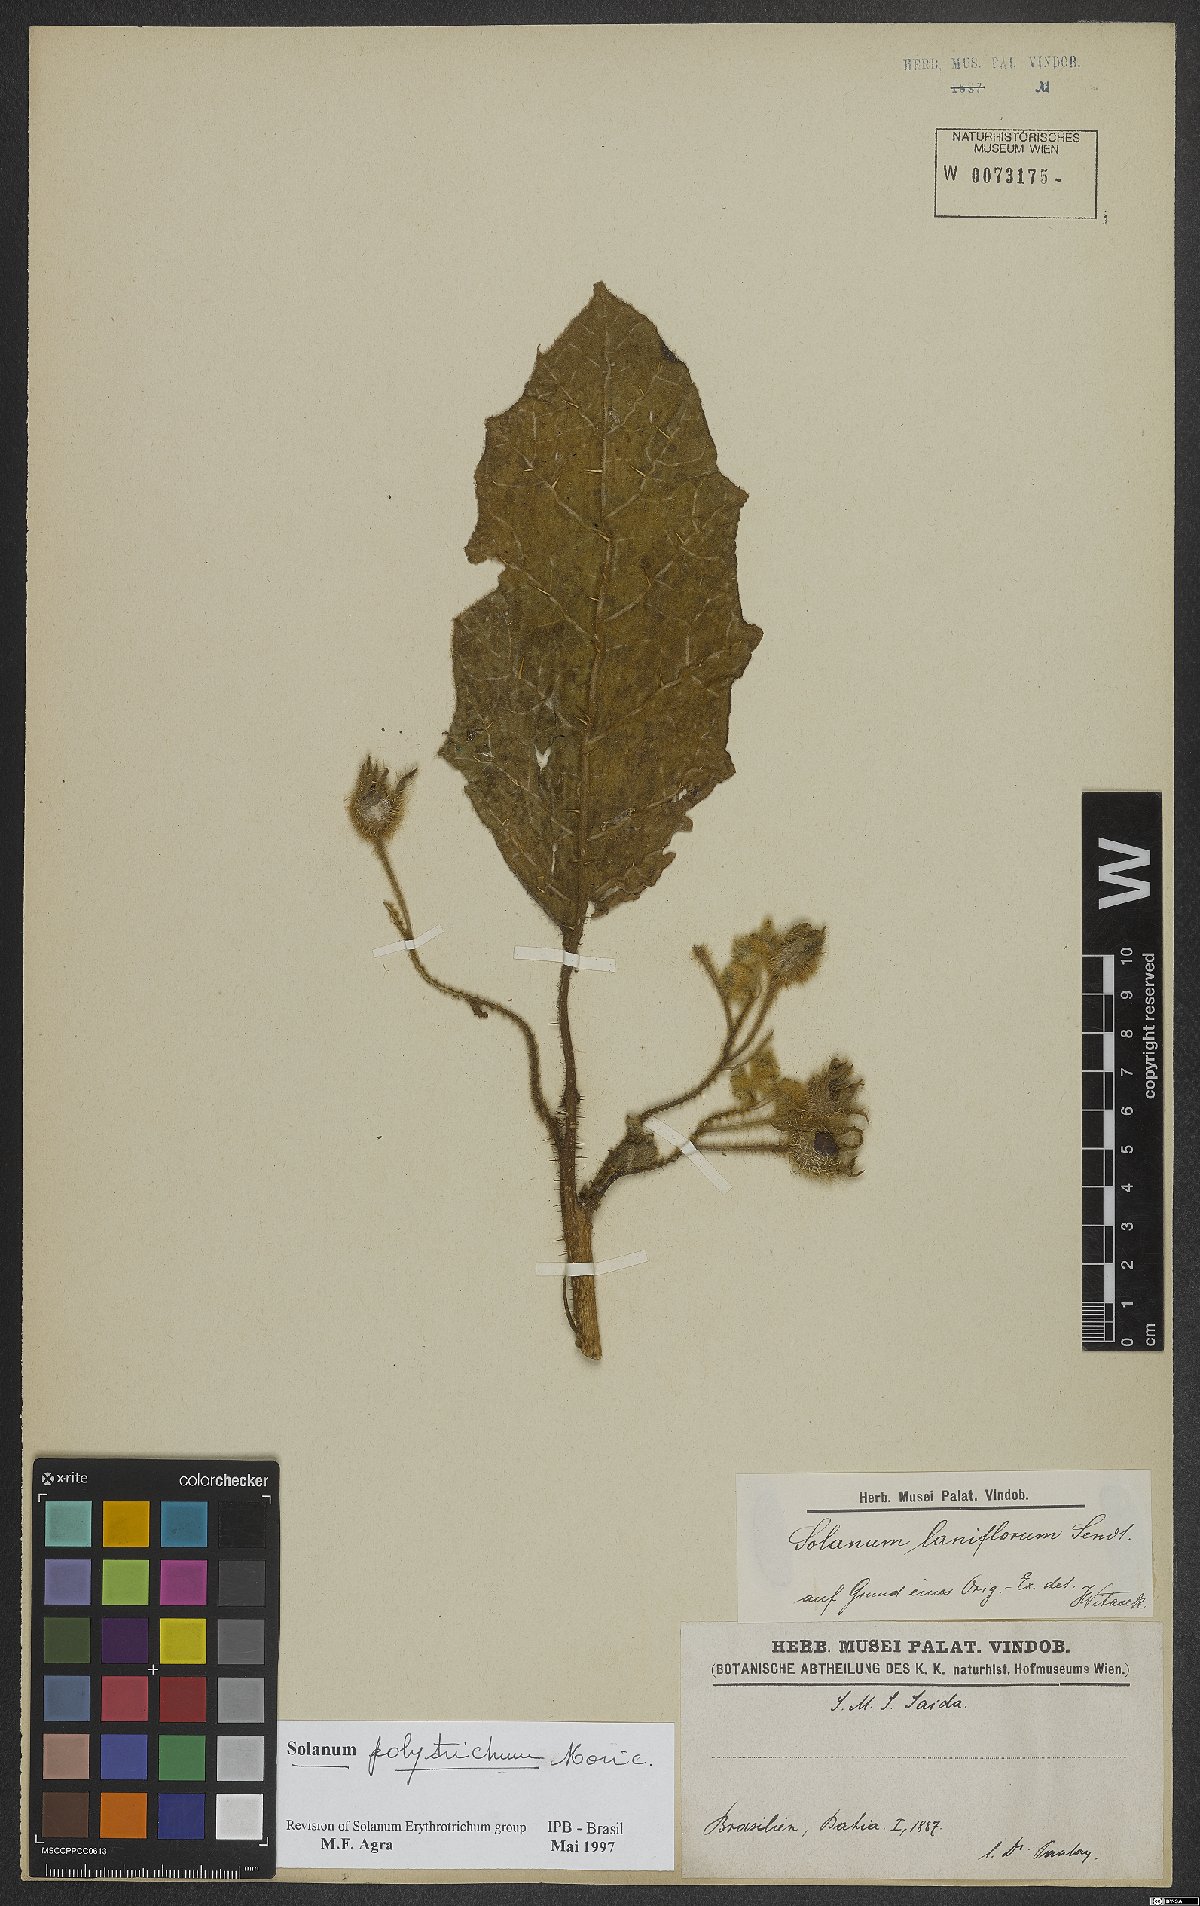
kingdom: Plantae
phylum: Tracheophyta
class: Magnoliopsida
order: Solanales
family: Solanaceae
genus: Solanum
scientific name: Solanum polytrichum
